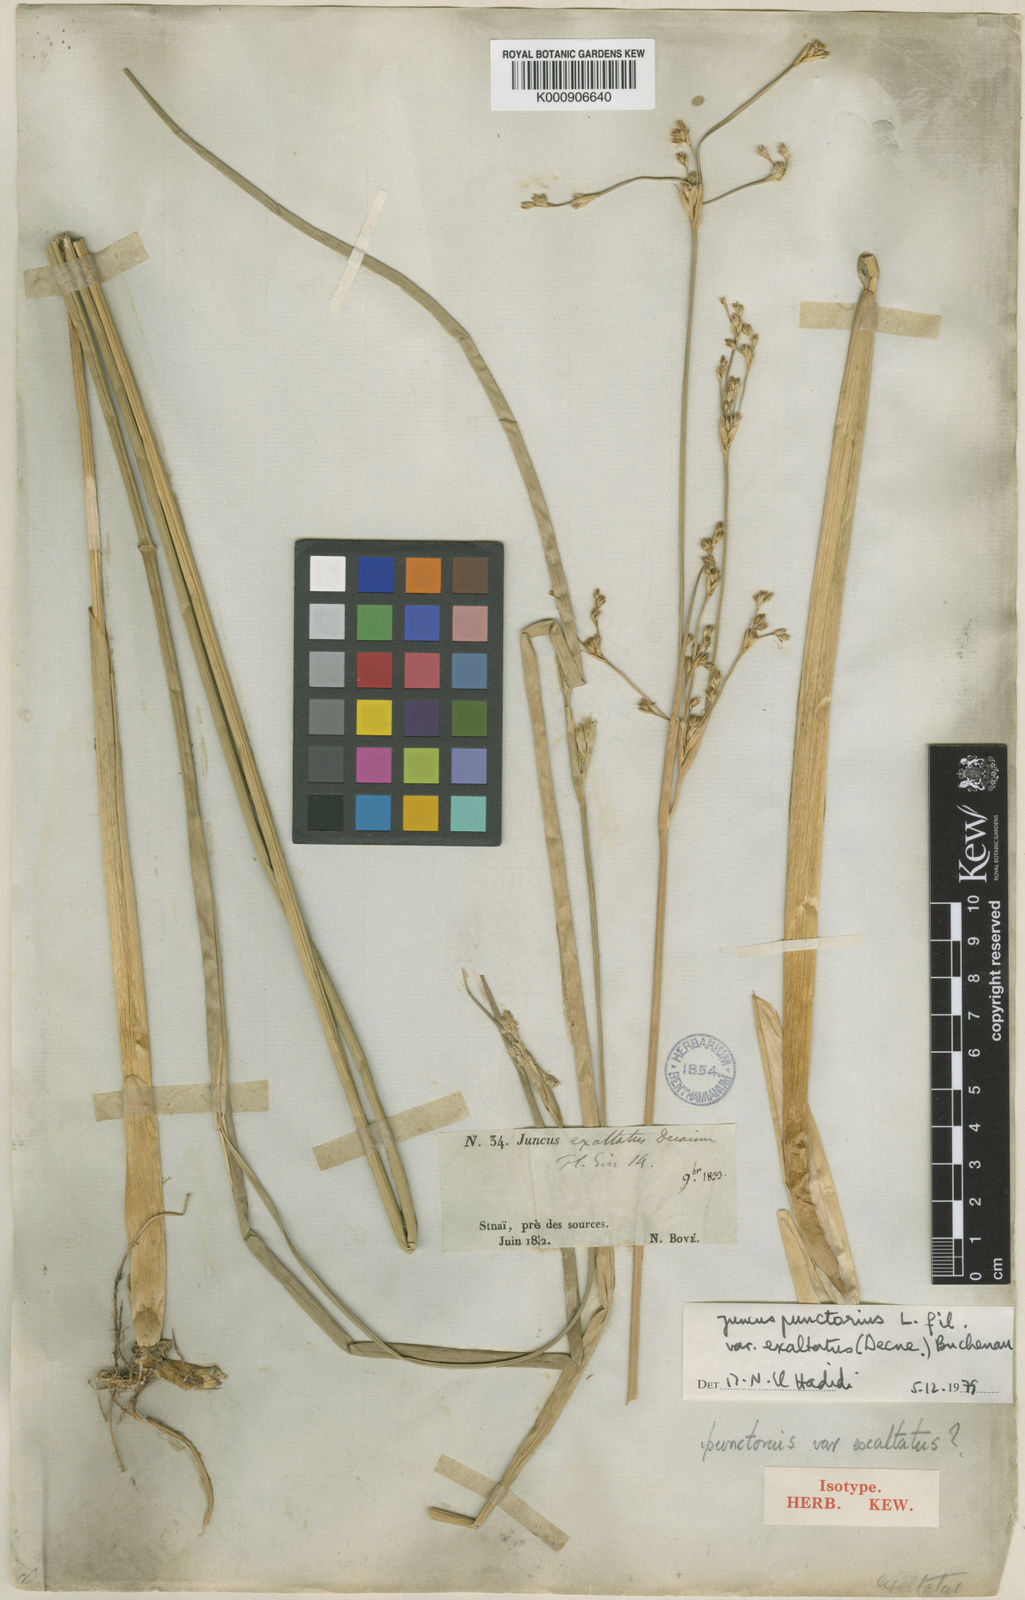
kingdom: Plantae
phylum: Tracheophyta
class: Liliopsida
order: Poales
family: Juncaceae
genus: Juncus
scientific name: Juncus punctorius
